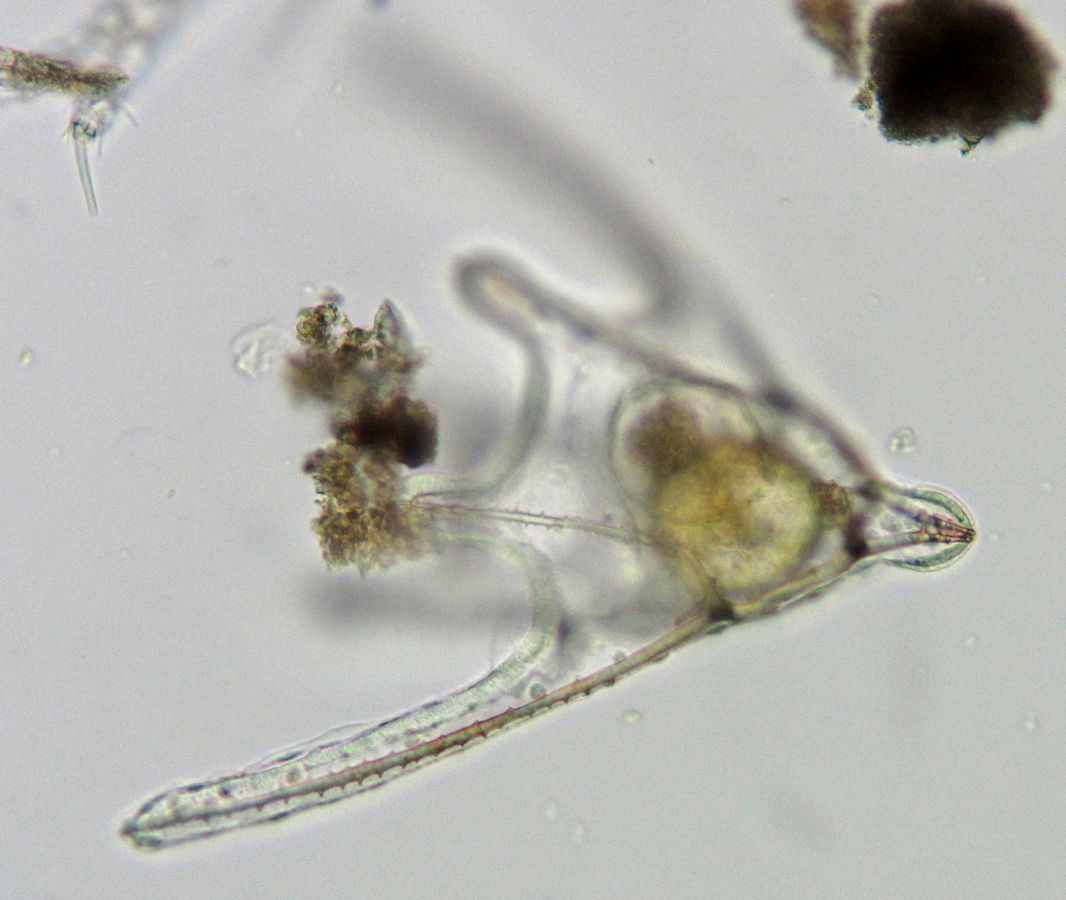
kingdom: Animalia
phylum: Echinodermata
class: Ophiuroidea
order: Amphilepidida
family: Ophiopholidae
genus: Ophiopholis
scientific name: Ophiopholis aculeata
